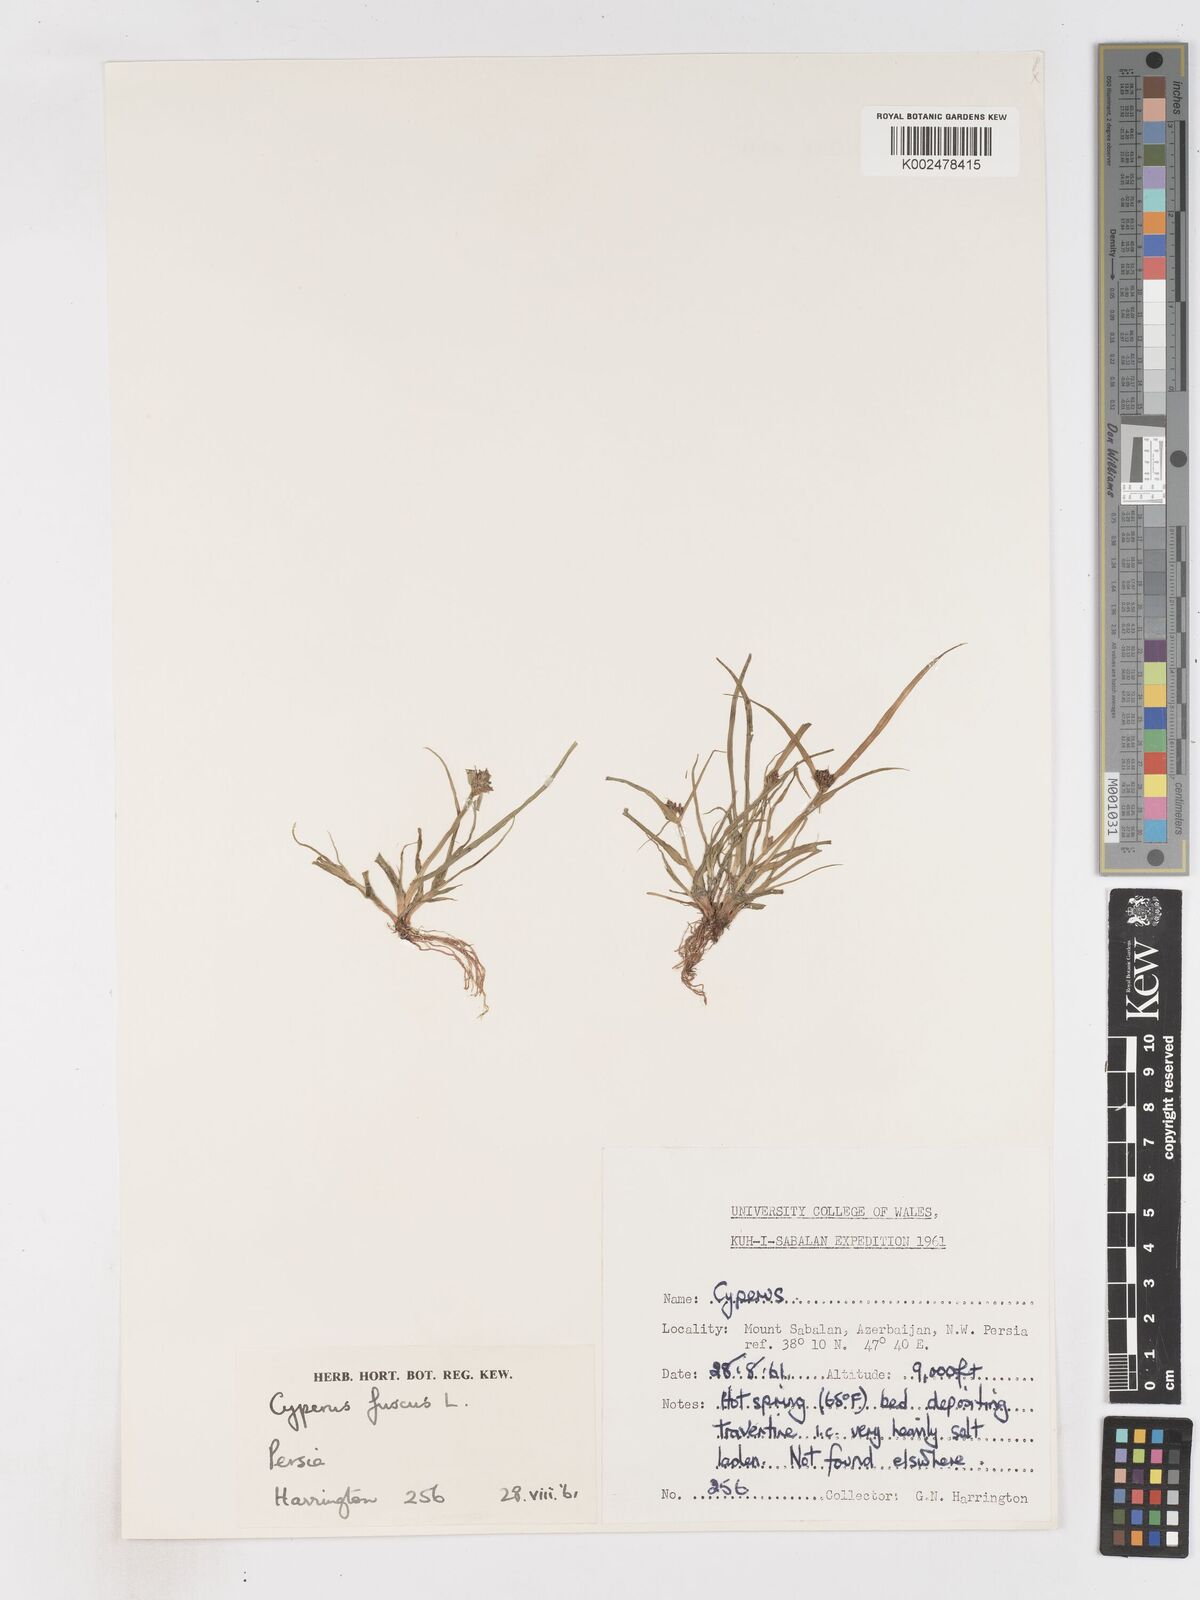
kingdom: Plantae
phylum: Tracheophyta
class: Liliopsida
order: Poales
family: Cyperaceae
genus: Cyperus
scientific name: Cyperus fuscus
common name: Brown galingale
